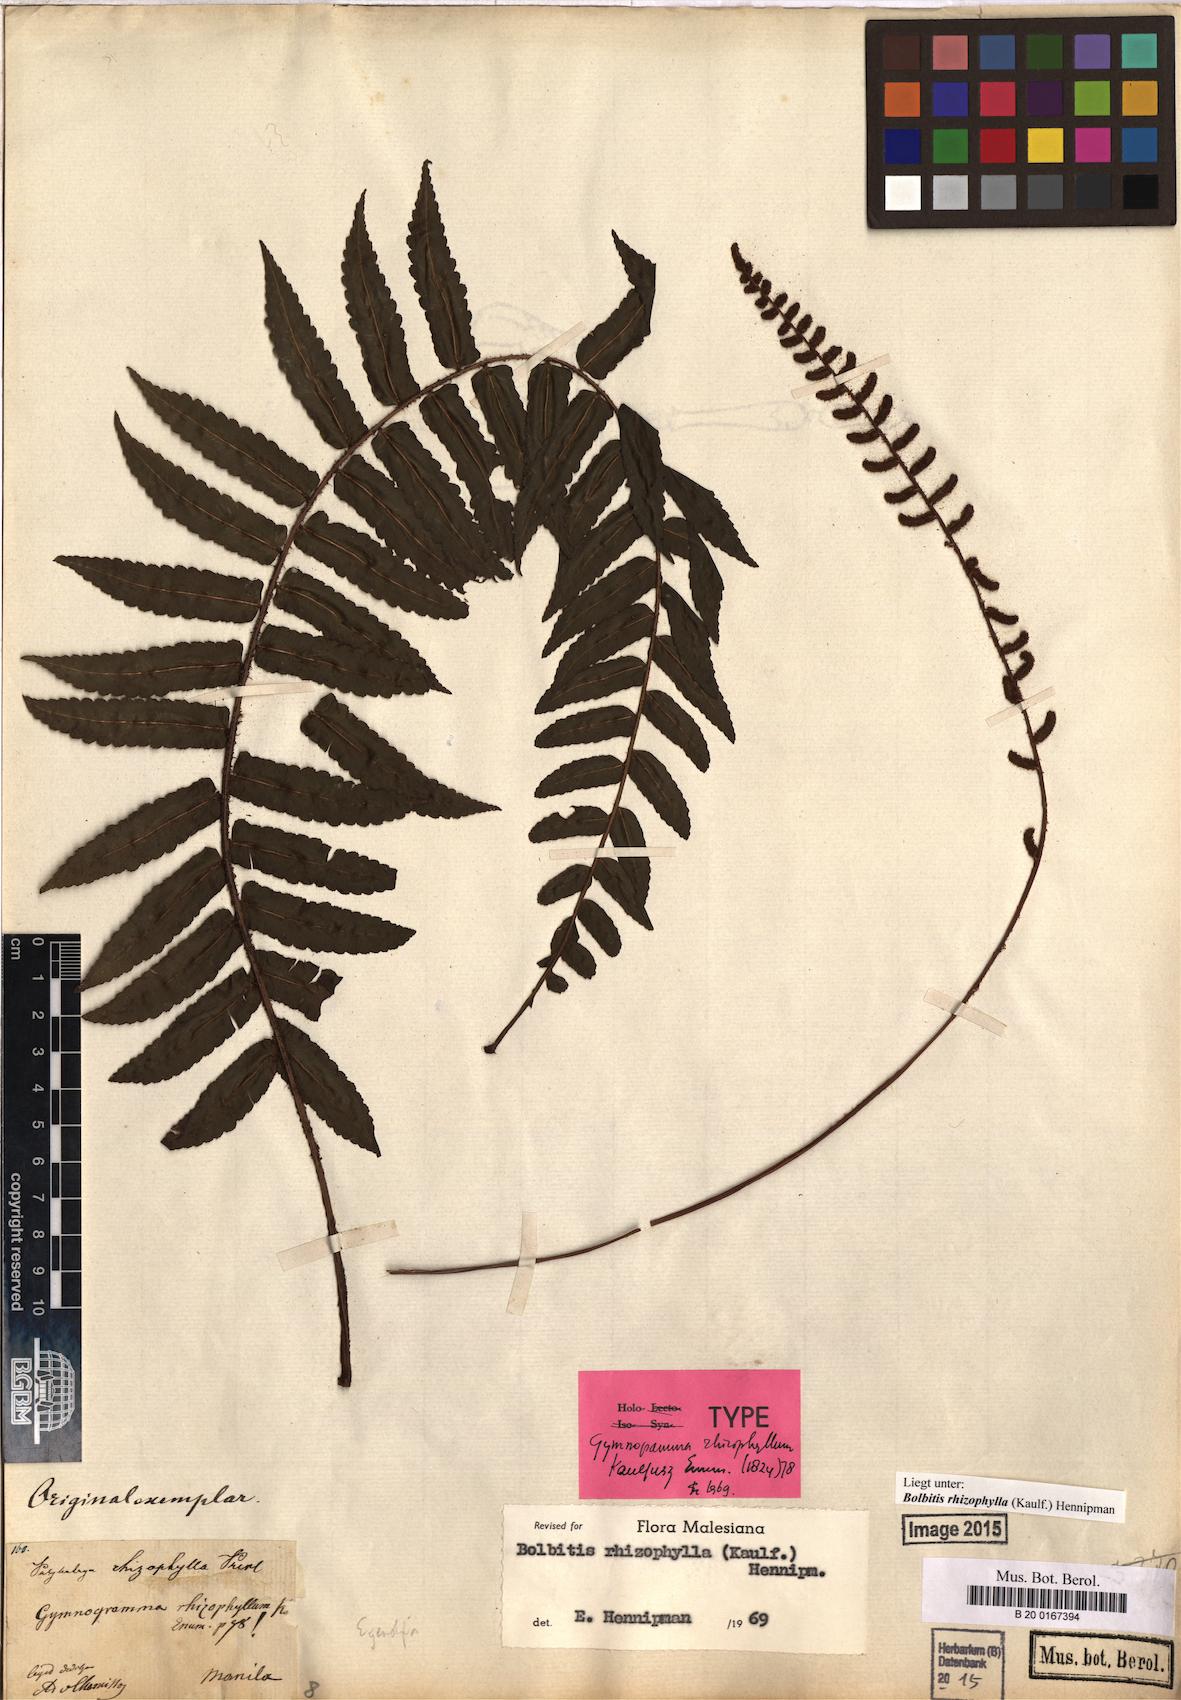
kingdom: Plantae
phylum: Tracheophyta
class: Polypodiopsida
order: Polypodiales
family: Dryopteridaceae
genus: Bolbitis
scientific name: Bolbitis rhizophylla
